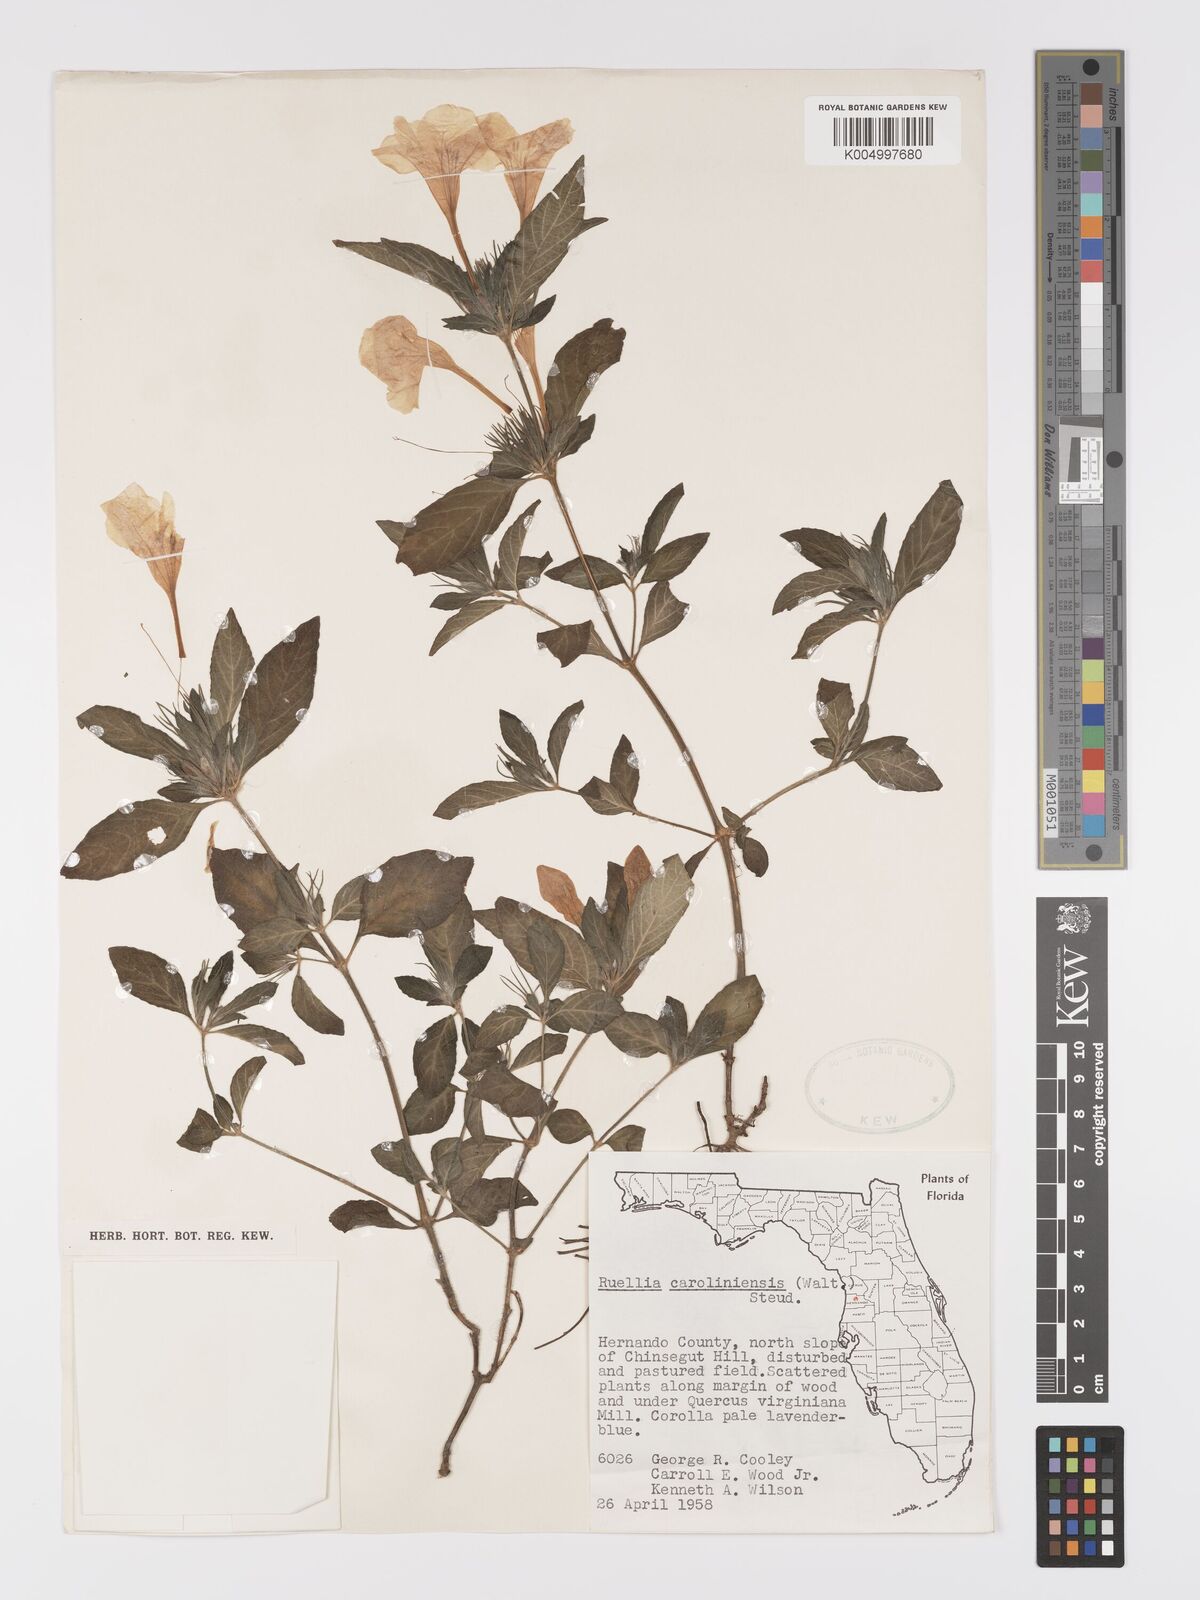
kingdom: Plantae
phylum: Tracheophyta
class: Magnoliopsida
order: Lamiales
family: Acanthaceae
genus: Ruellia
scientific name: Ruellia caroliniensis
